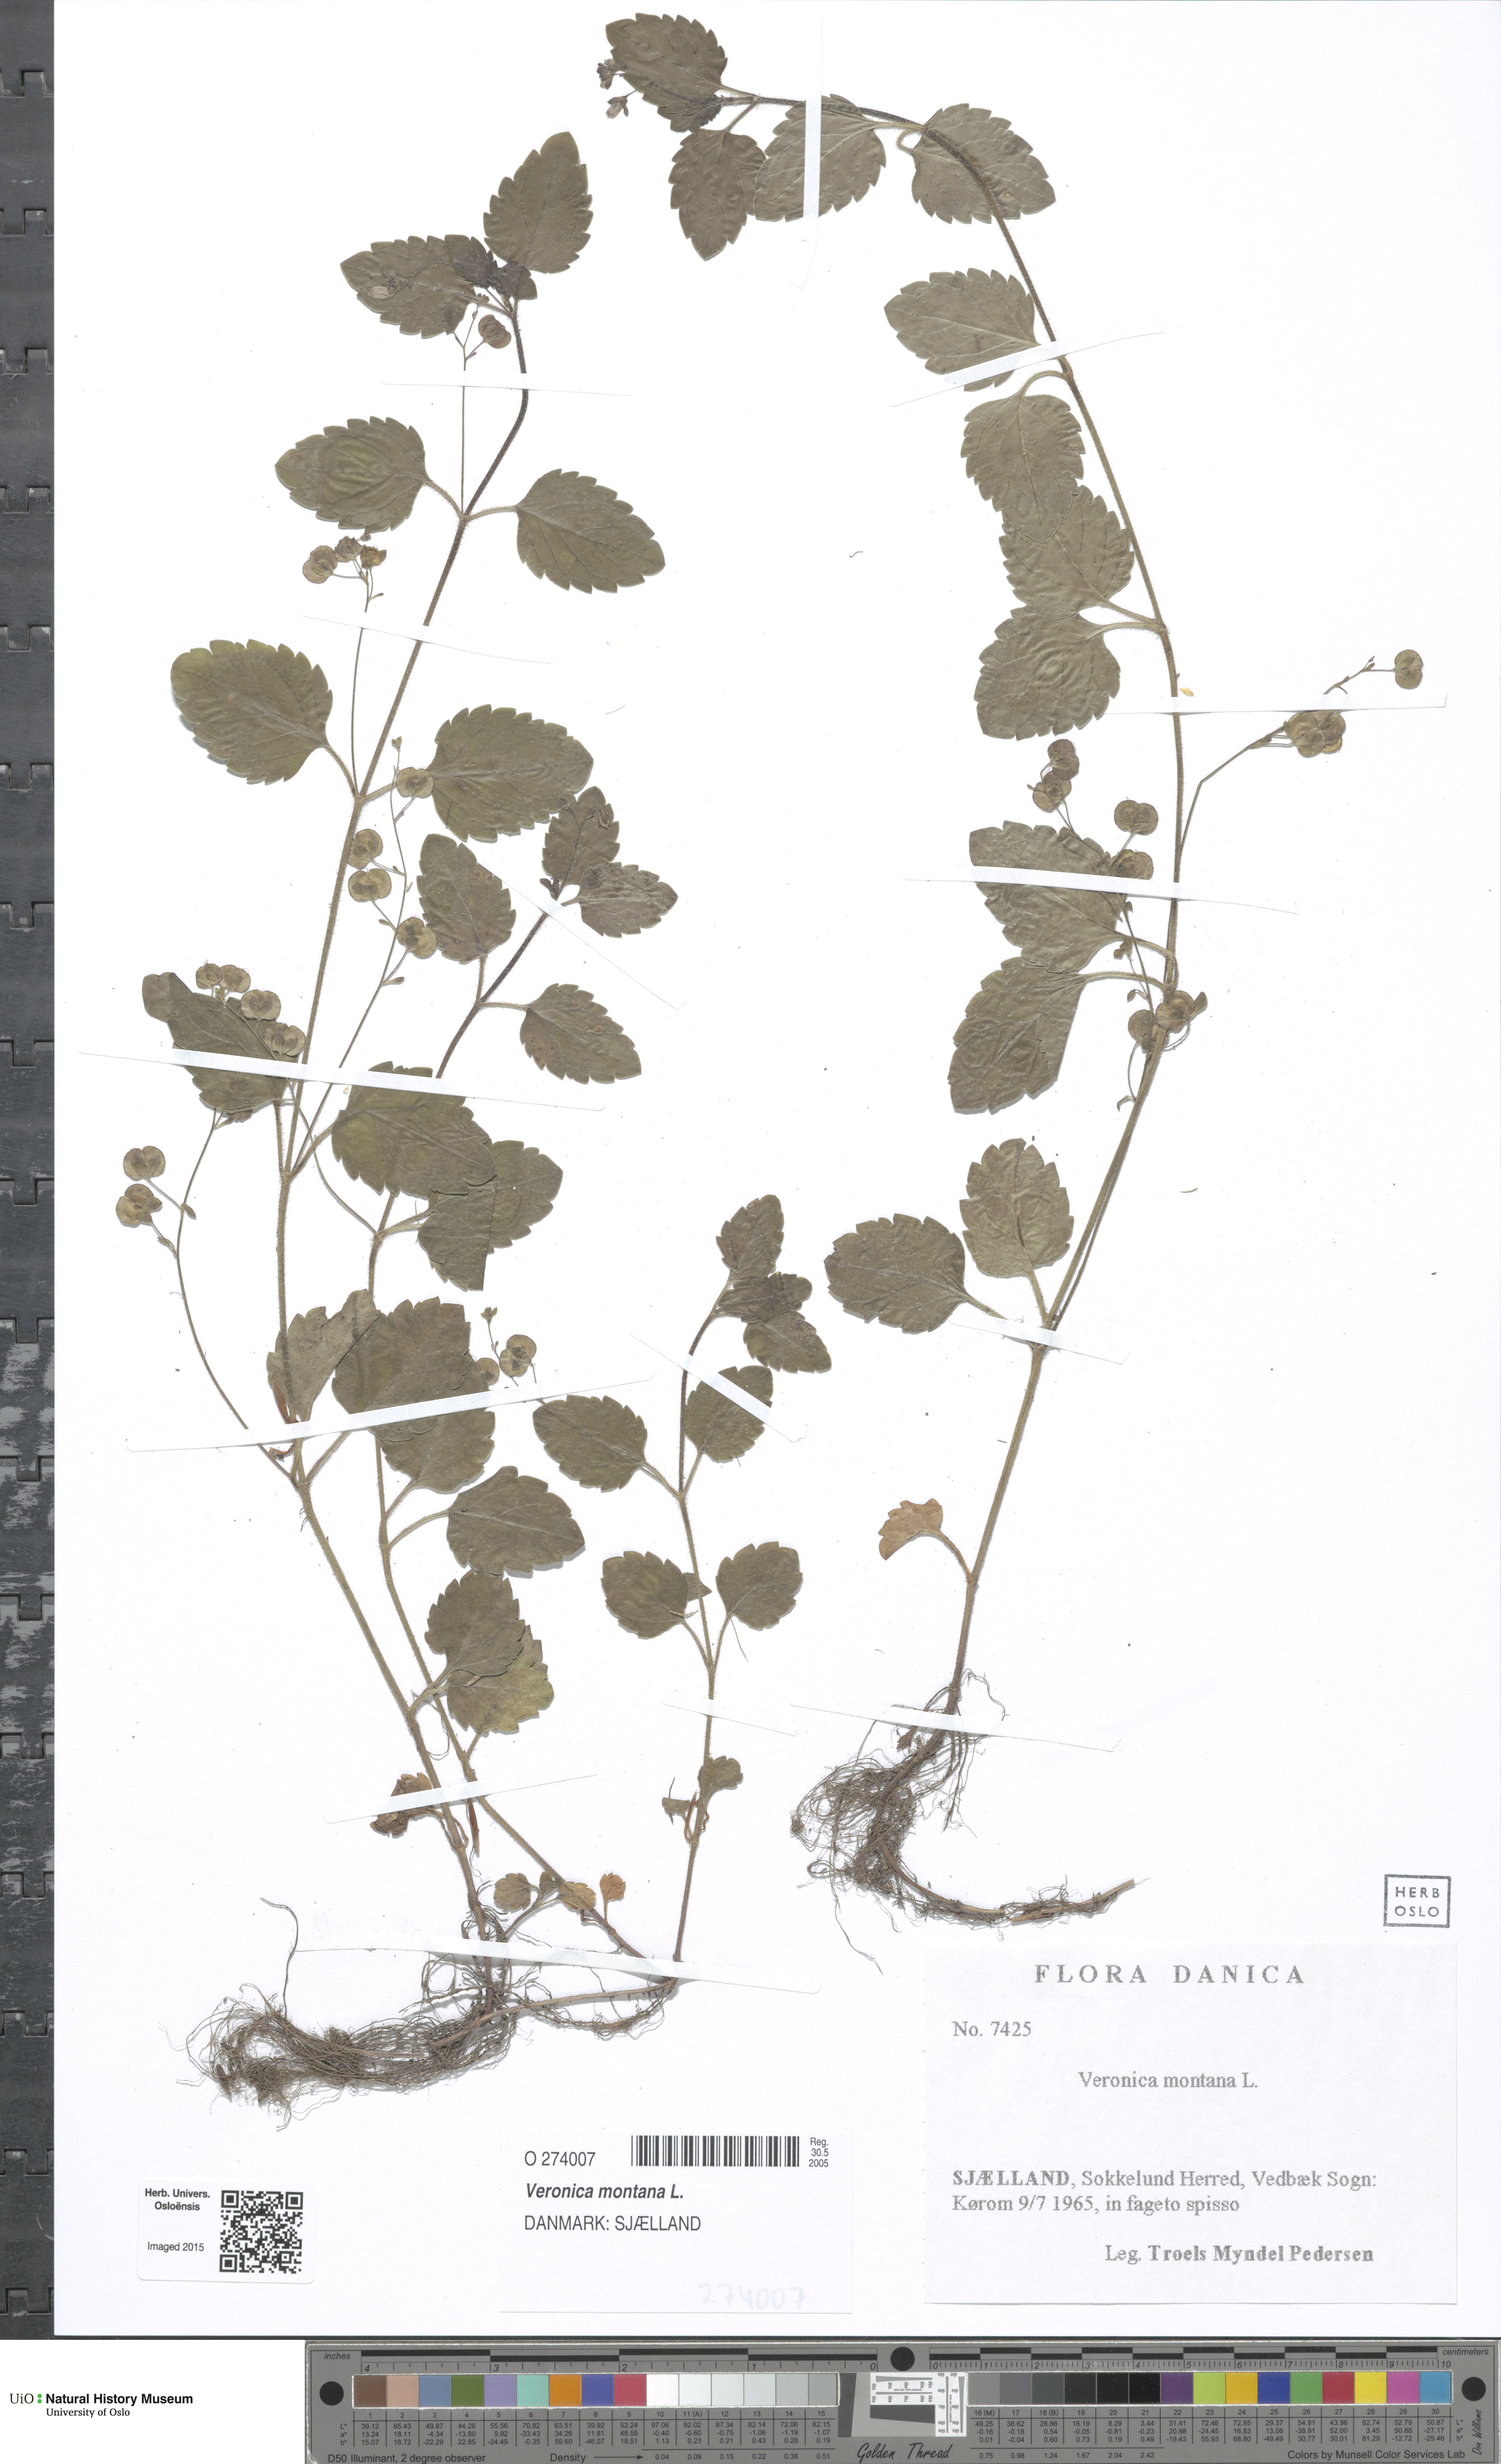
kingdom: Plantae
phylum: Tracheophyta
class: Magnoliopsida
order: Lamiales
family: Plantaginaceae
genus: Veronica
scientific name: Veronica montana
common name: Wood speedwell
